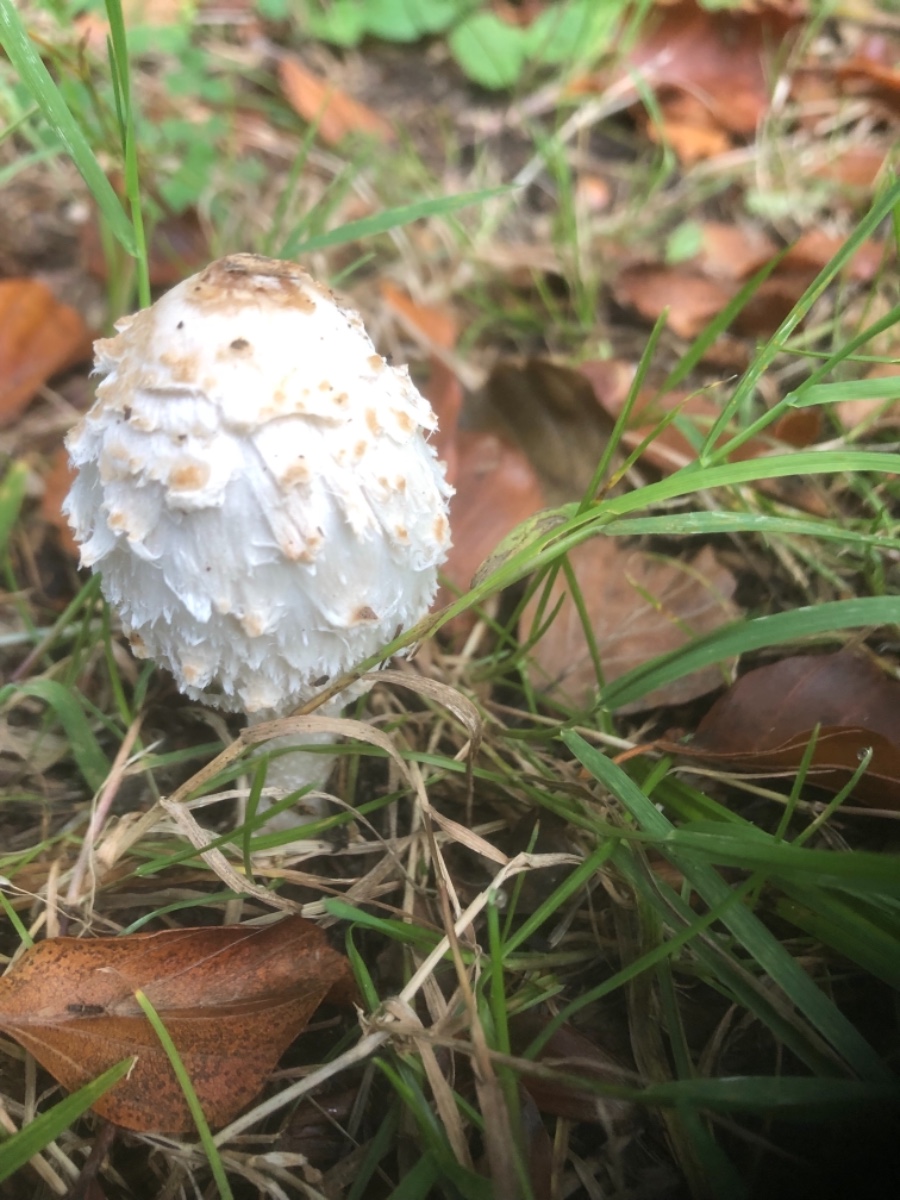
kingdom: Fungi
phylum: Basidiomycota
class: Agaricomycetes
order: Agaricales
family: Agaricaceae
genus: Coprinus
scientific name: Coprinus comatus
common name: stor parykhat
